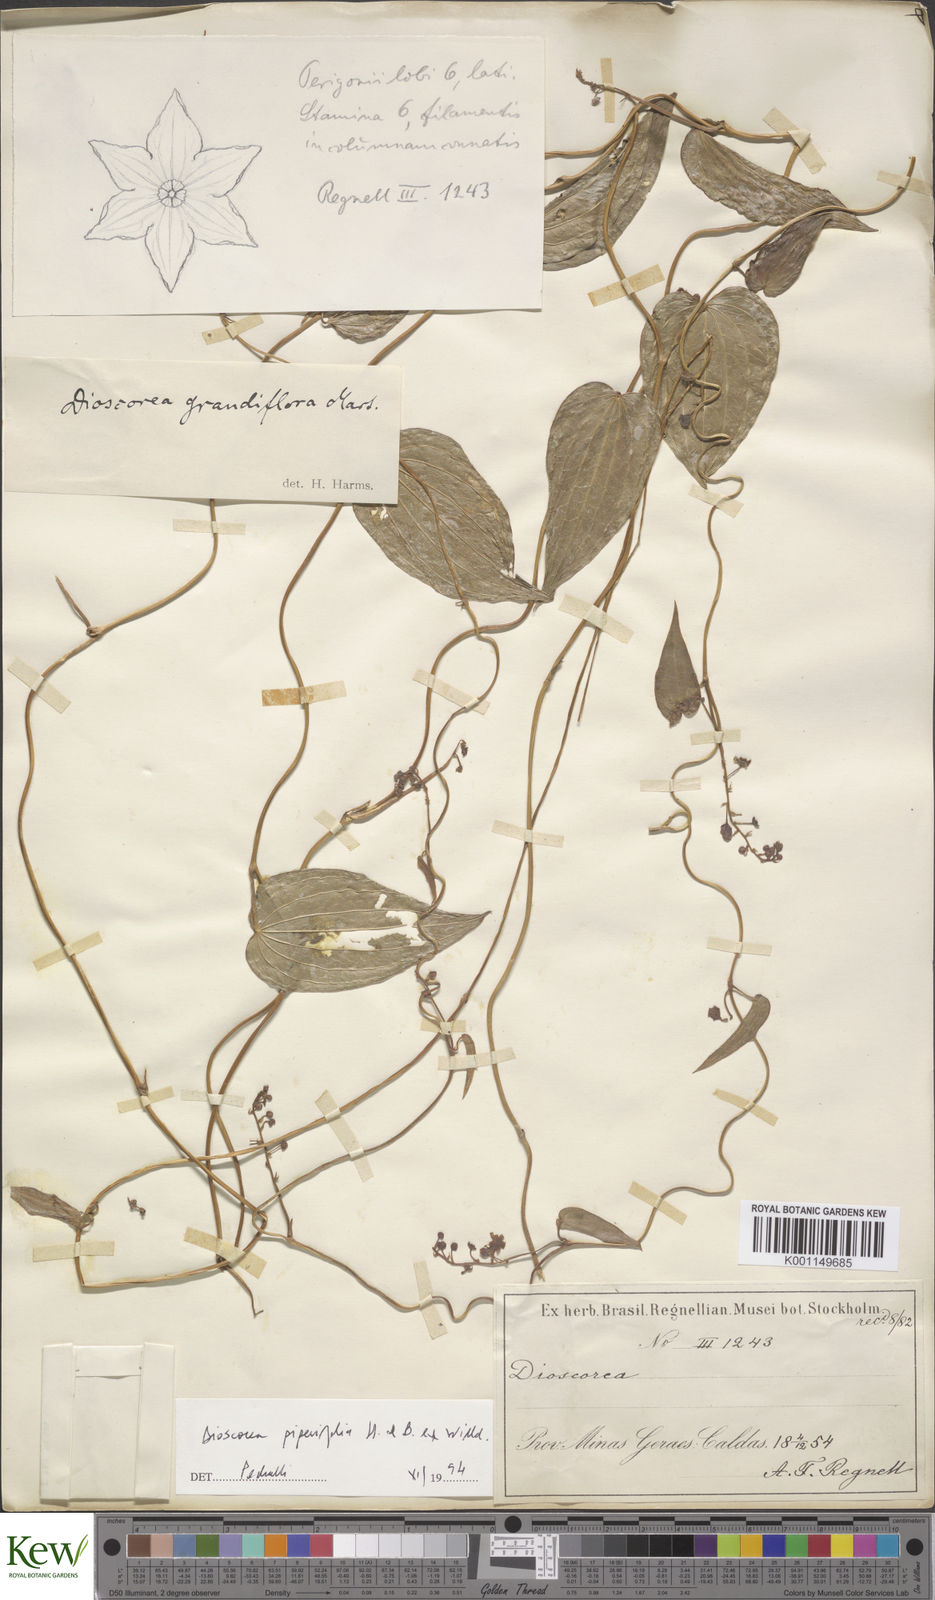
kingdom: Plantae
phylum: Tracheophyta
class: Liliopsida
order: Dioscoreales
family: Dioscoreaceae
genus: Dioscorea
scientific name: Dioscorea grandiflora
